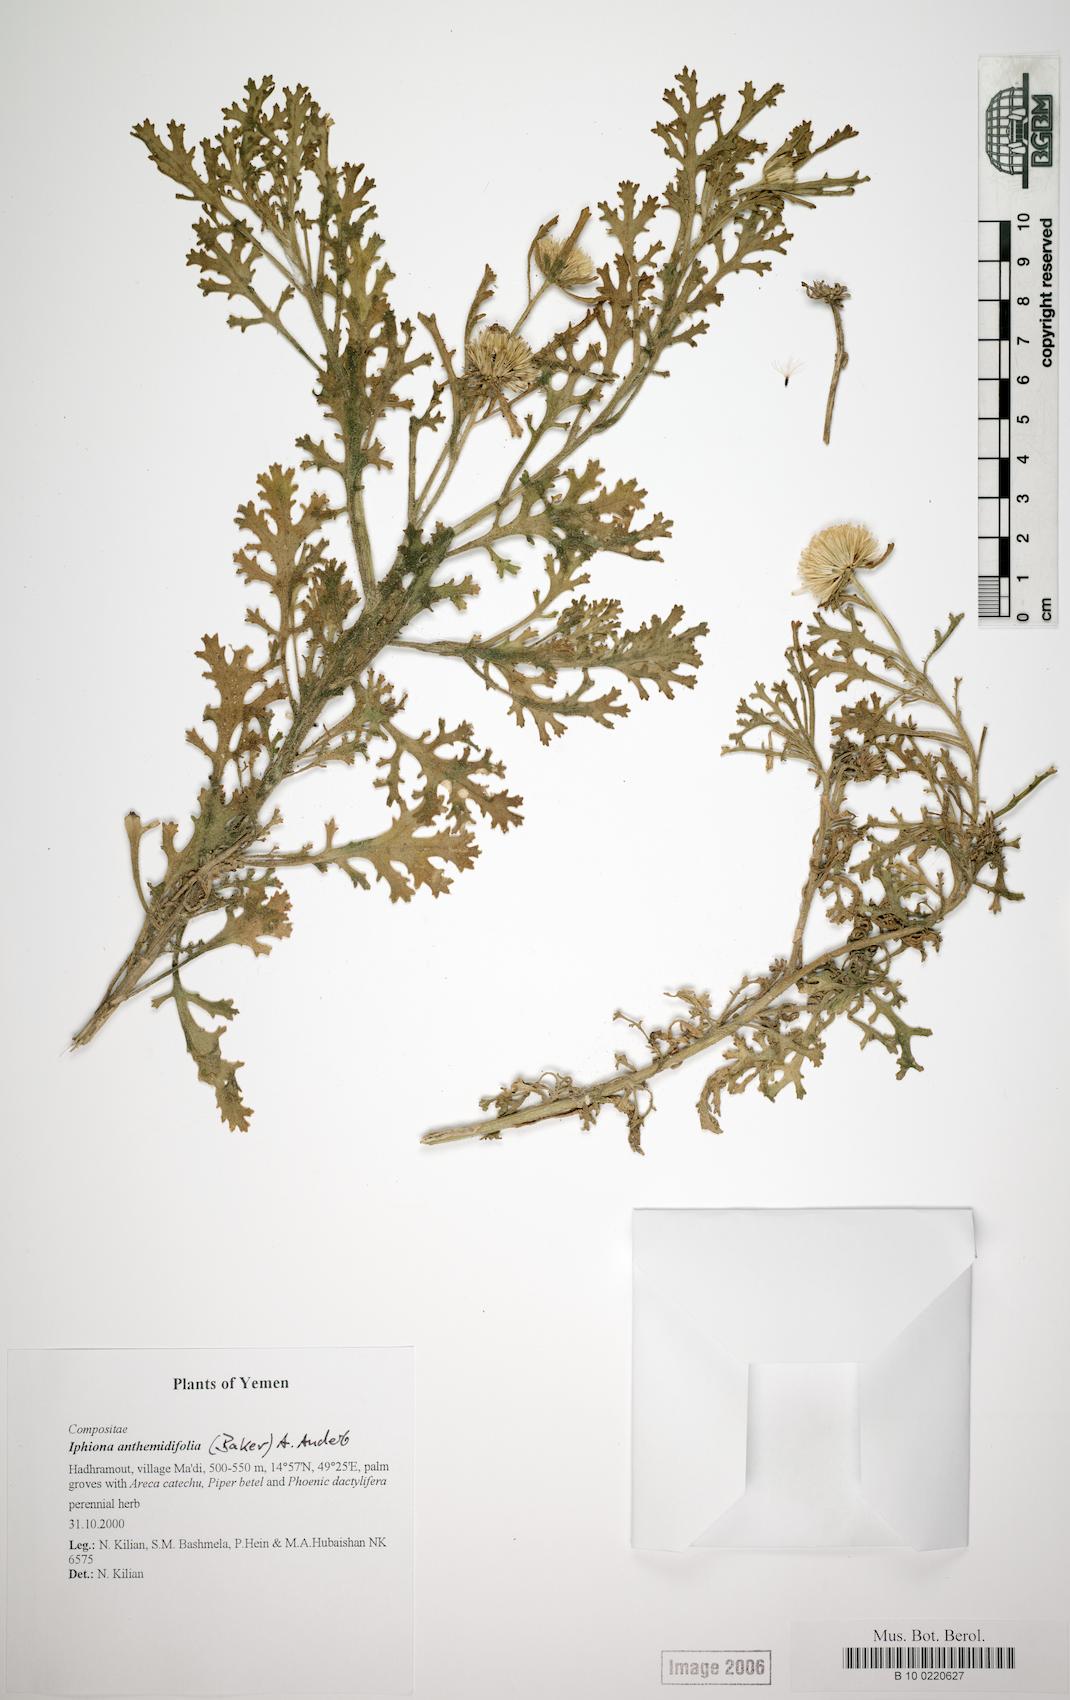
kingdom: Plantae
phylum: Tracheophyta
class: Magnoliopsida
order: Caryophyllales
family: Caryophyllaceae
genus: Arenaria
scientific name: Arenaria serpyllifolia
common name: Thyme-leaved sandwort
